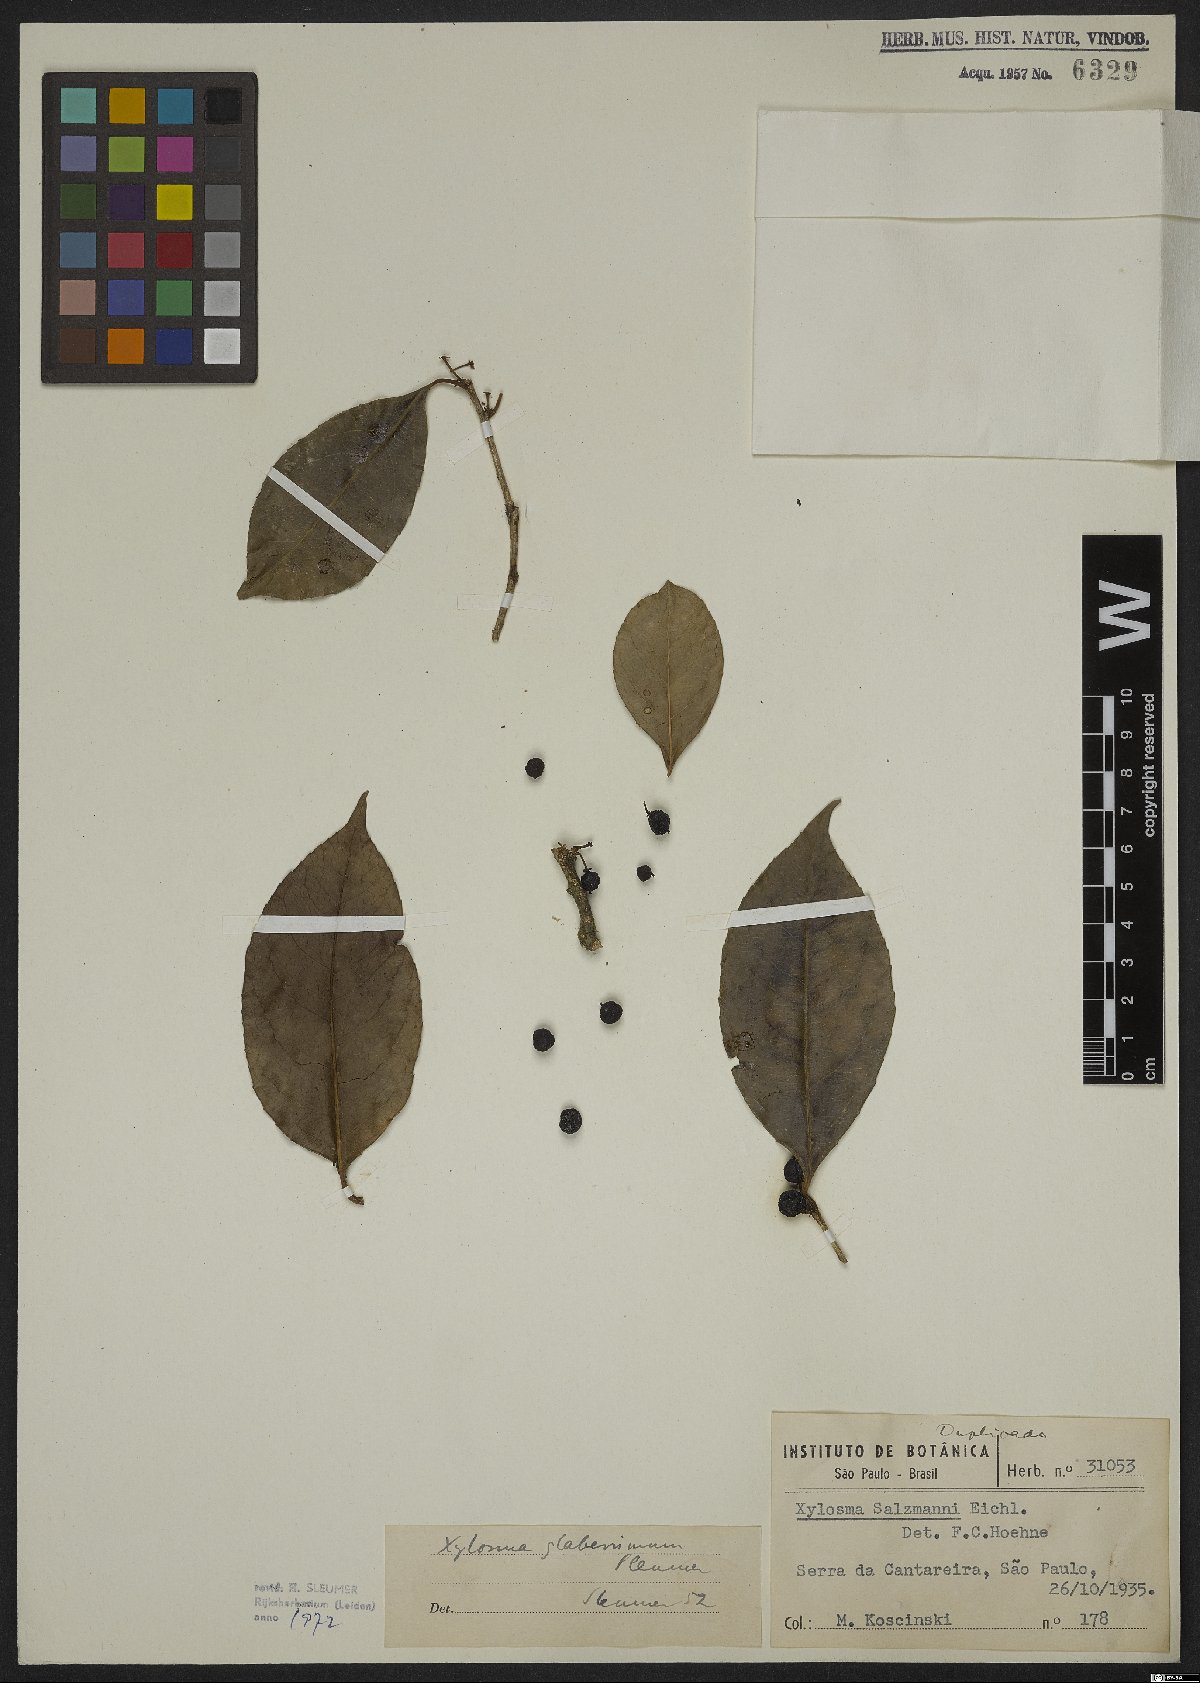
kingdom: Plantae
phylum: Tracheophyta
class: Magnoliopsida
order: Ericales
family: Ericaceae
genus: Agarista
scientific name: Agarista coriifolia
